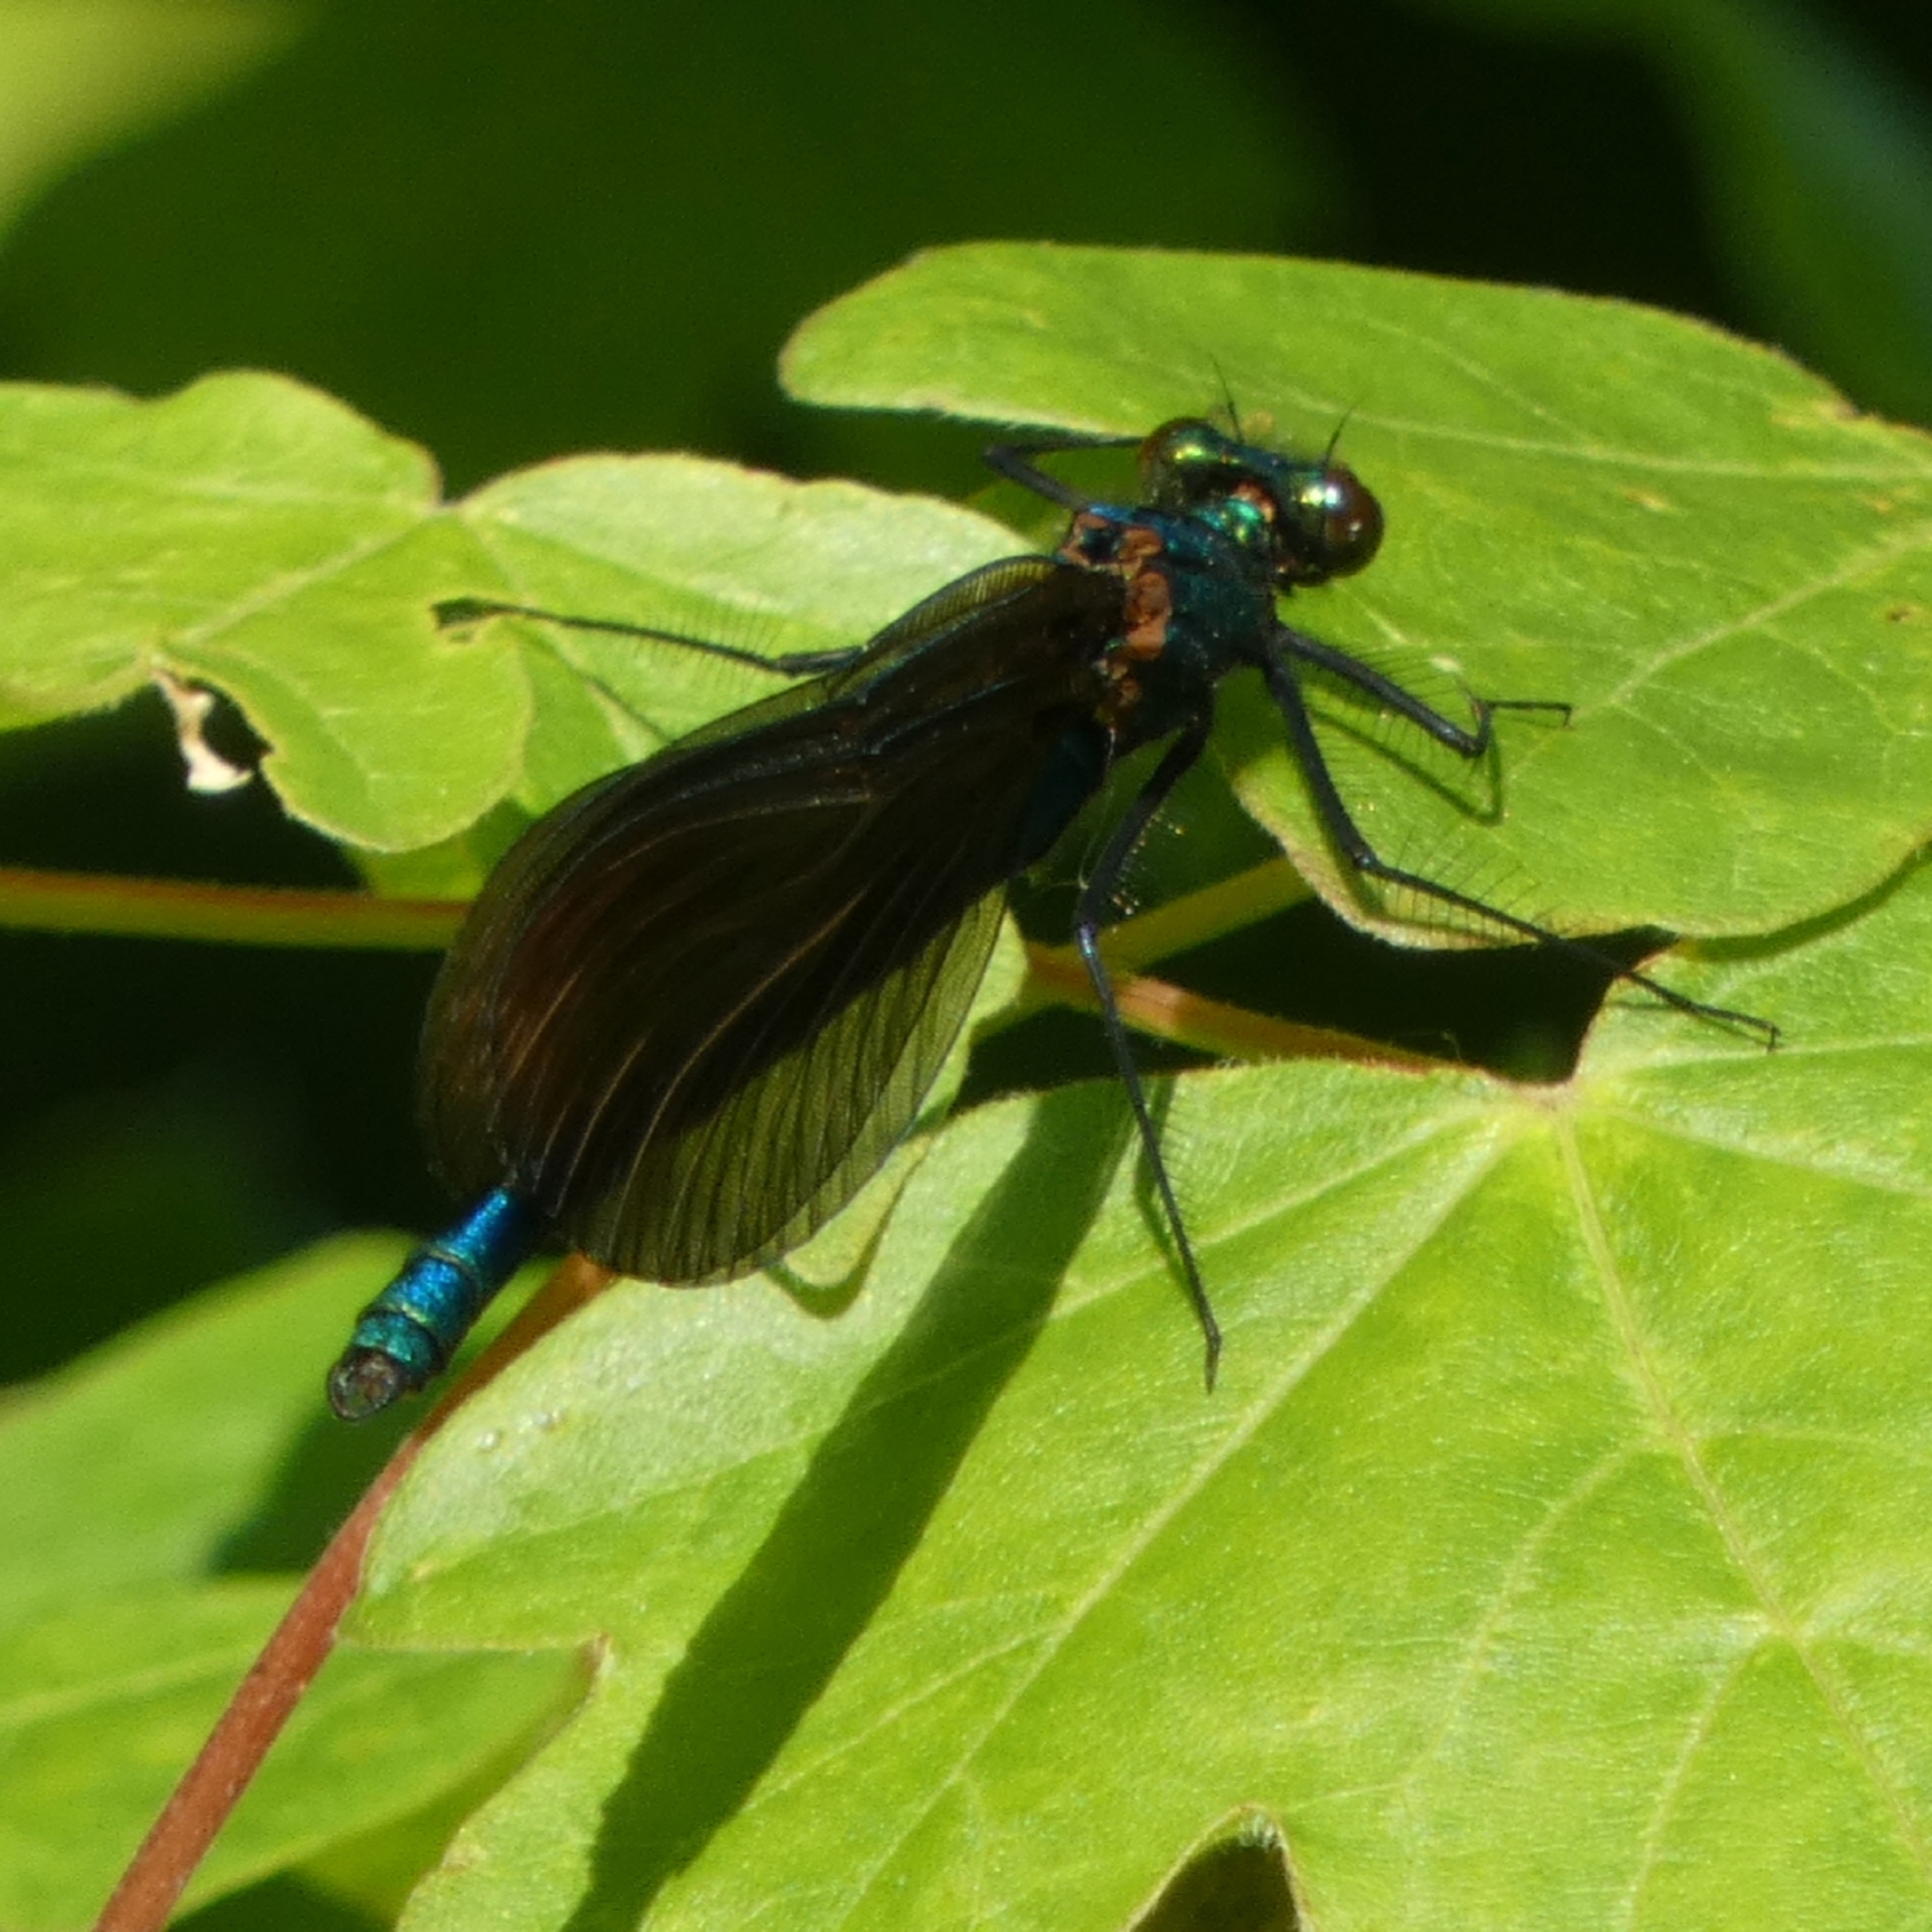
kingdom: Animalia
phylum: Arthropoda
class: Insecta
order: Odonata
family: Calopterygidae
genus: Calopteryx
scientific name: Calopteryx virgo
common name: Blåvinget pragtvandnymfe
